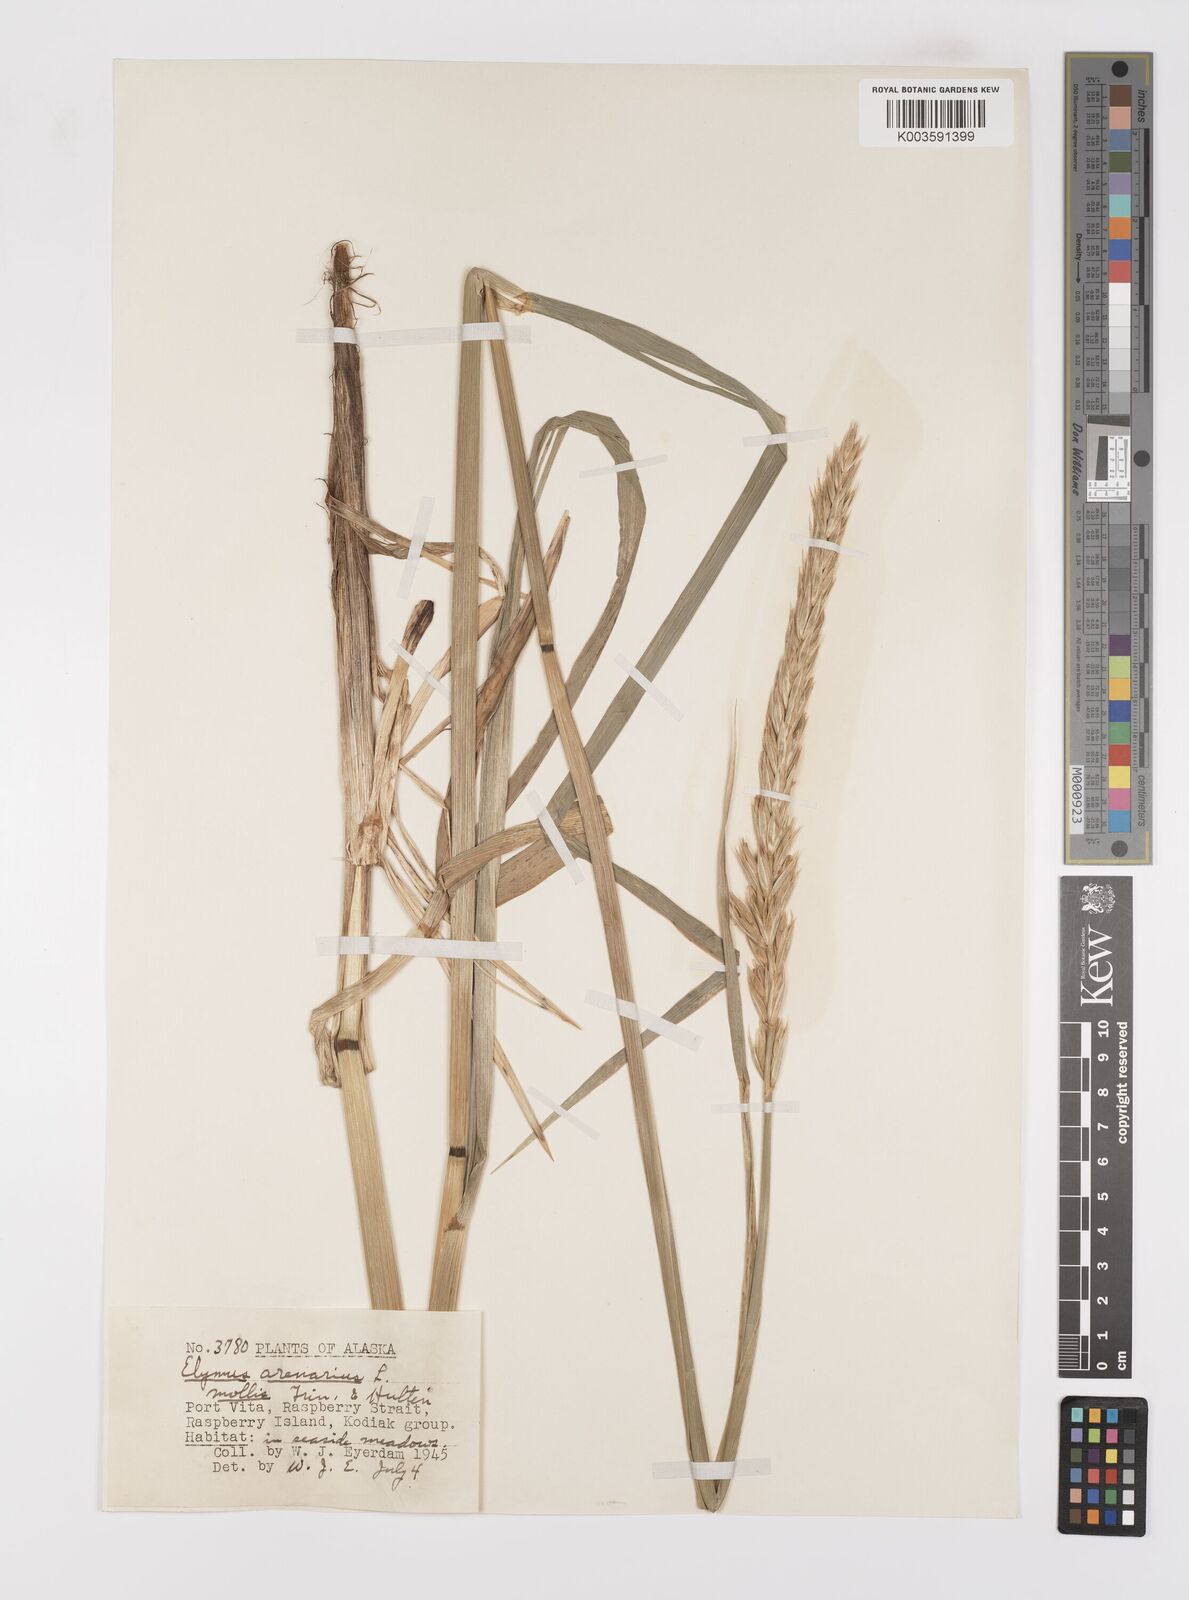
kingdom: Plantae
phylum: Tracheophyta
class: Liliopsida
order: Poales
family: Poaceae
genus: Leymus
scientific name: Leymus mollis
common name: American dune grass
